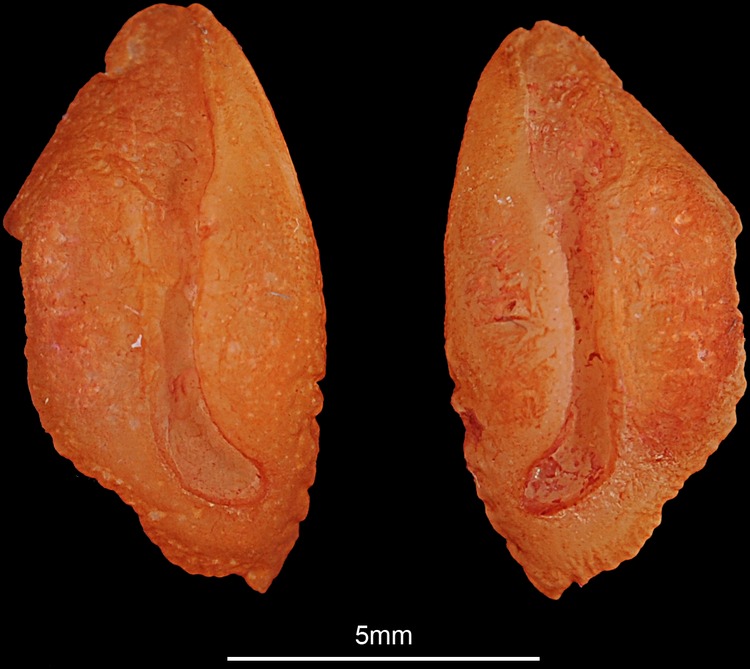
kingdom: Animalia
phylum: Chordata
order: Perciformes
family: Terapontidae
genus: Terapon
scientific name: Terapon jarbua
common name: Jarbua terapon
